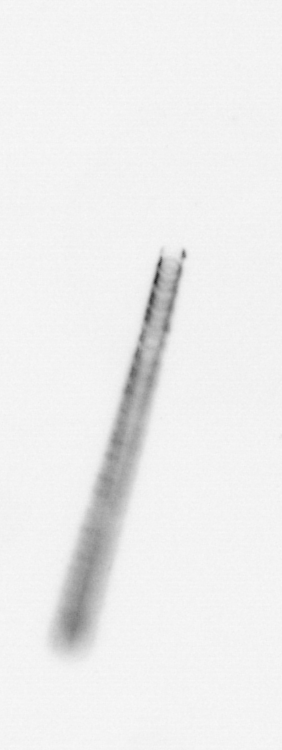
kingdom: Chromista
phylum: Ochrophyta
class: Bacillariophyceae
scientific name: Bacillariophyceae
